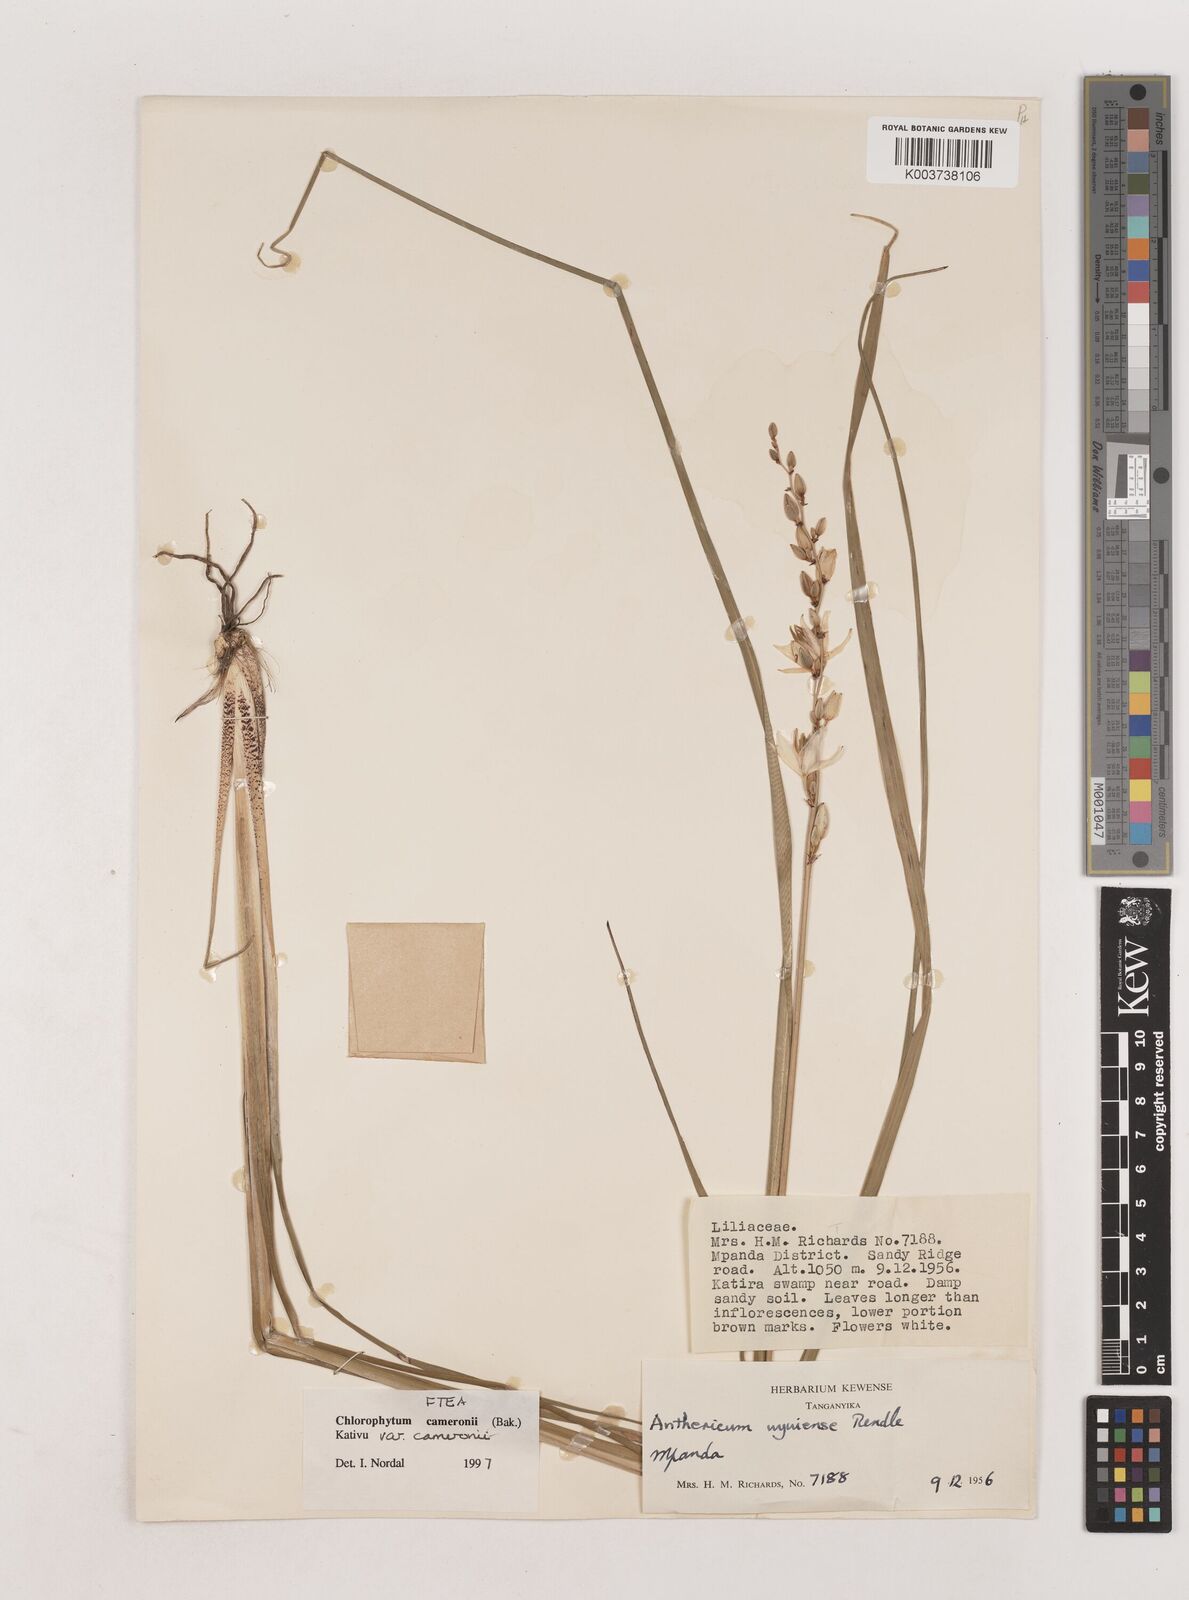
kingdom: Plantae
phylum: Tracheophyta
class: Liliopsida
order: Asparagales
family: Asparagaceae
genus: Chlorophytum
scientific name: Chlorophytum cameronii
